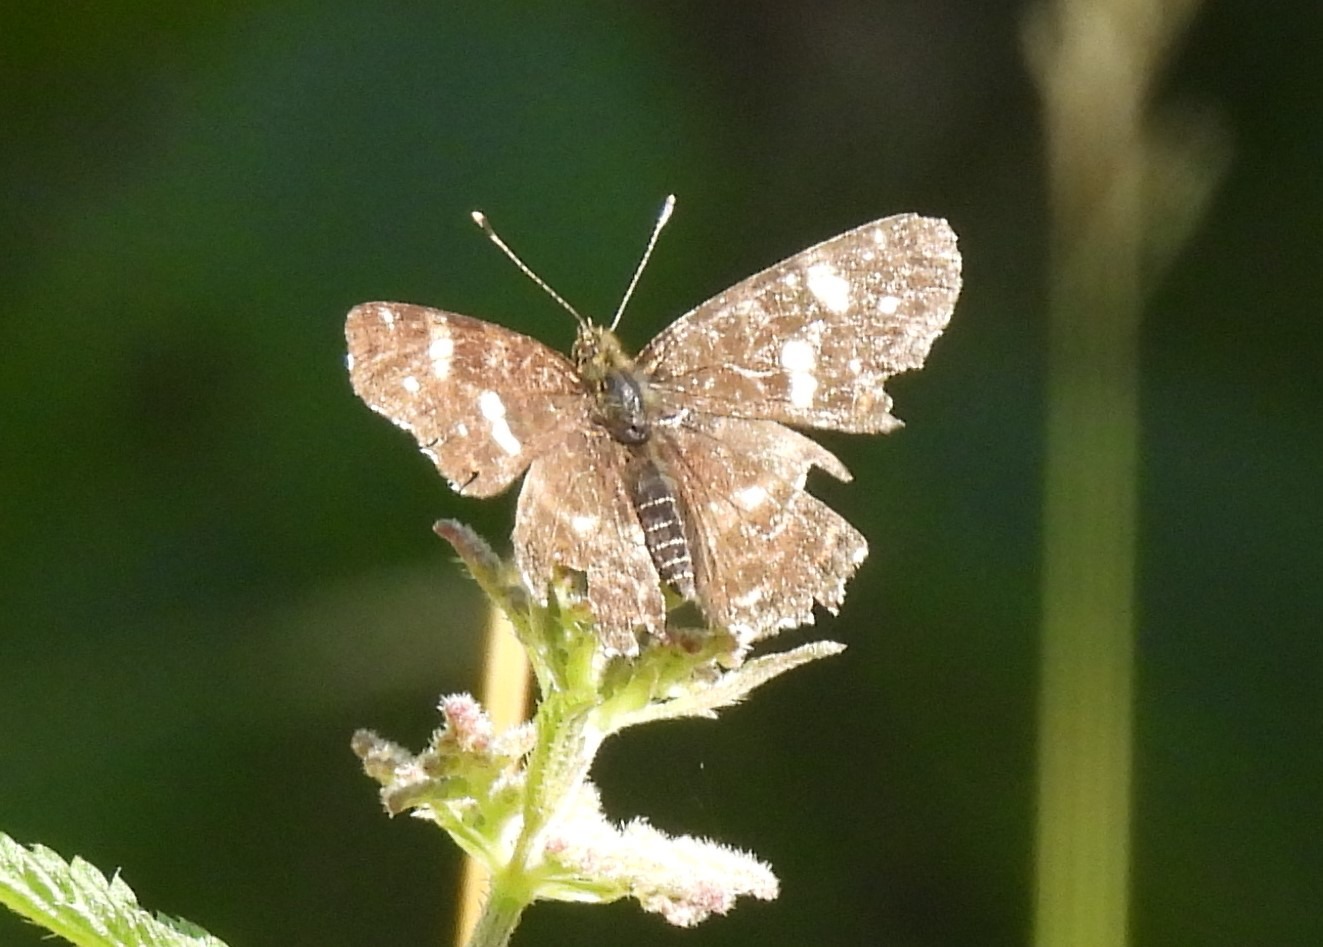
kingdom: Animalia
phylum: Arthropoda
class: Insecta
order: Lepidoptera
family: Nymphalidae
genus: Araschnia
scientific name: Araschnia levana
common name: Nældesommerfugl
